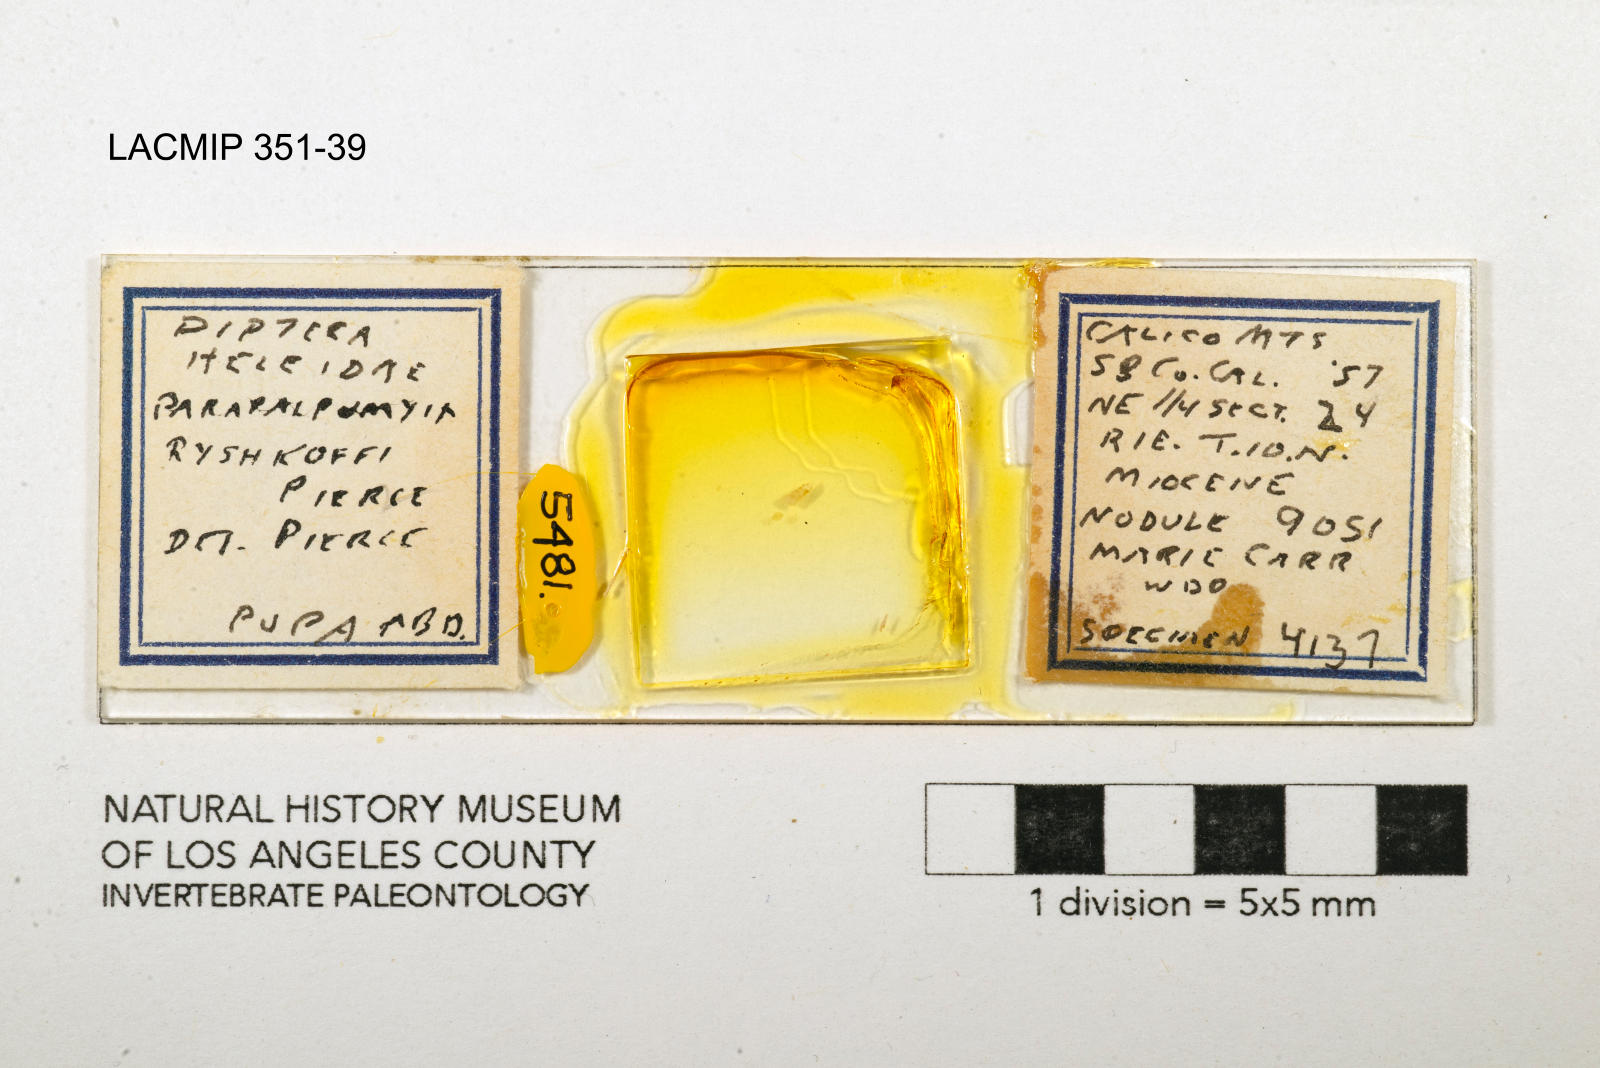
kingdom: Animalia
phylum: Arthropoda
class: Insecta
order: Diptera
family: Ceratopogonidae
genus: Palpomyia
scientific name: Palpomyia ryshkoffi
